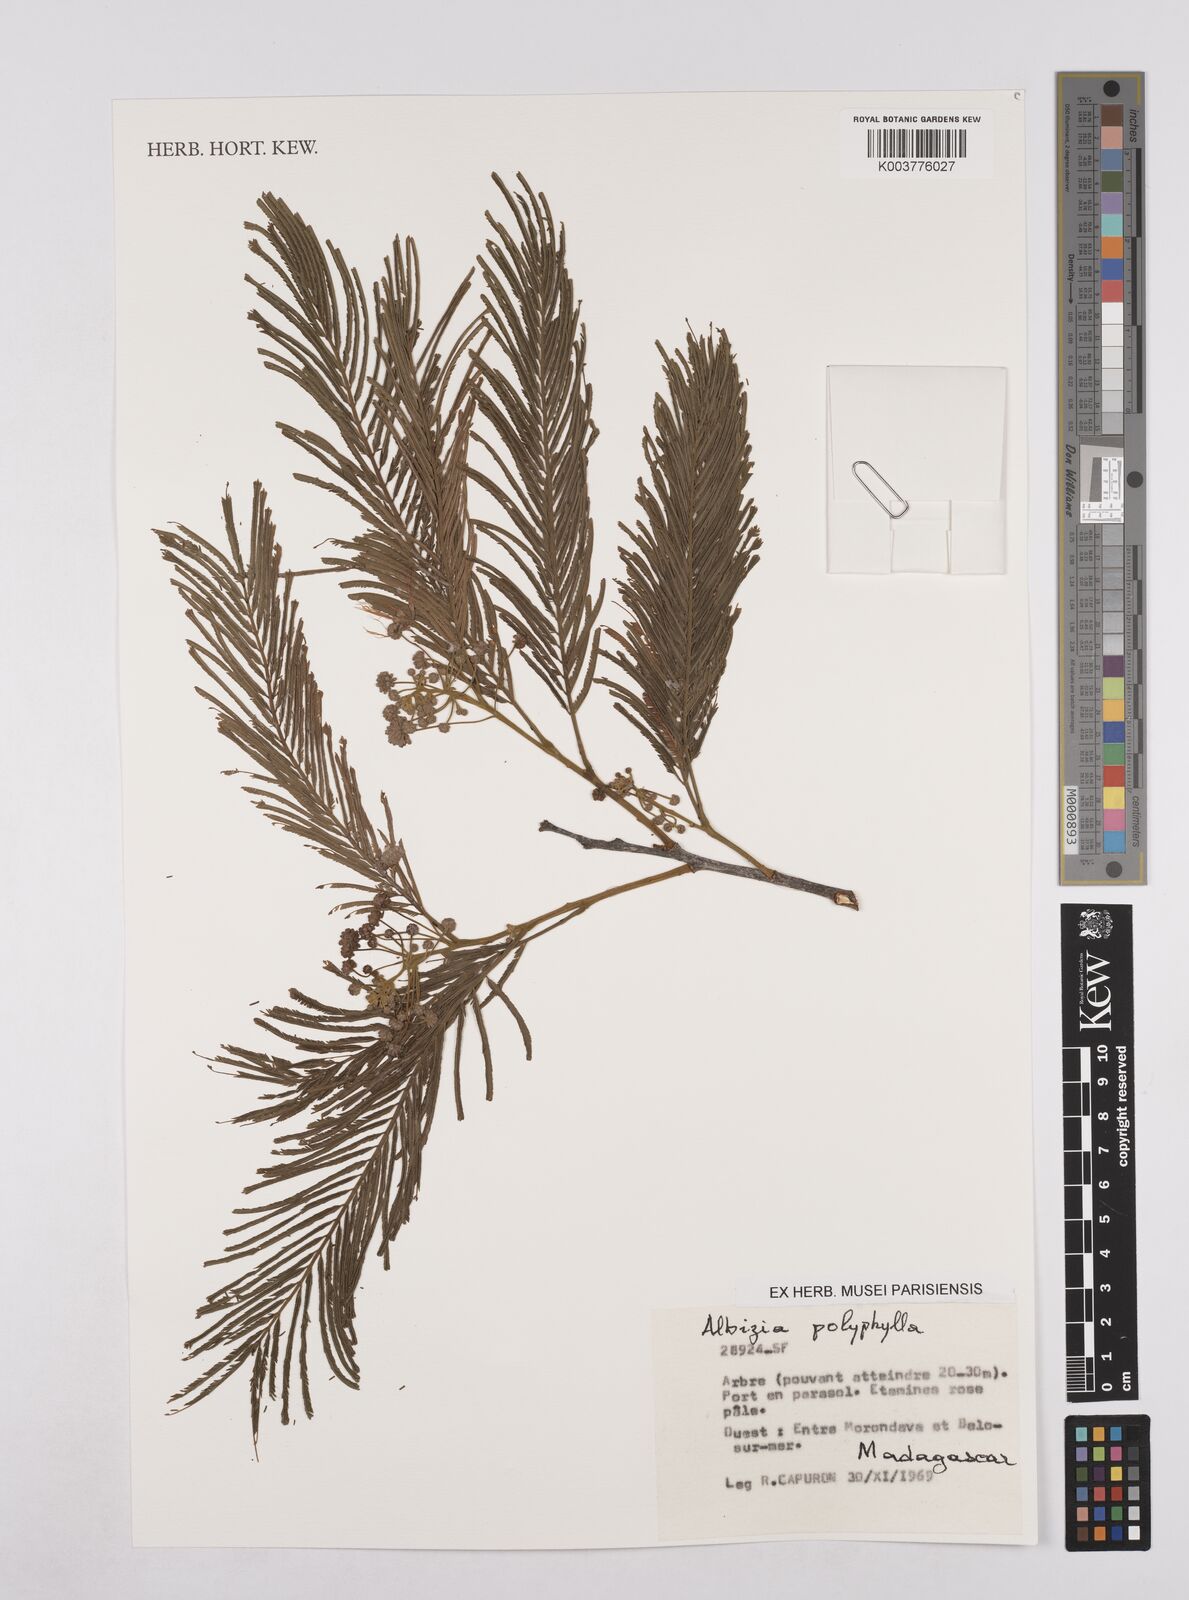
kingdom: Plantae
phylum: Tracheophyta
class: Magnoliopsida
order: Fabales
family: Fabaceae
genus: Albizia
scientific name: Albizia polyphylla
